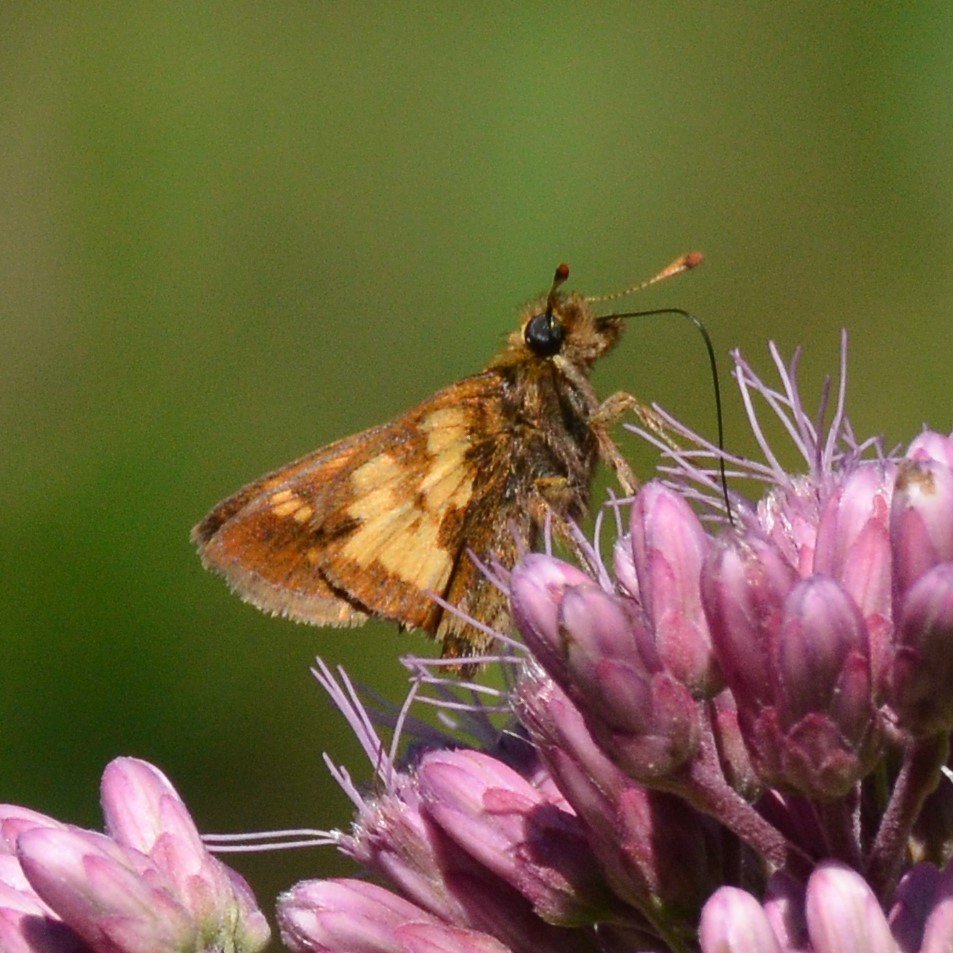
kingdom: Animalia
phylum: Arthropoda
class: Insecta
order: Lepidoptera
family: Hesperiidae
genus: Polites
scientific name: Polites coras
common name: Peck's Skipper
